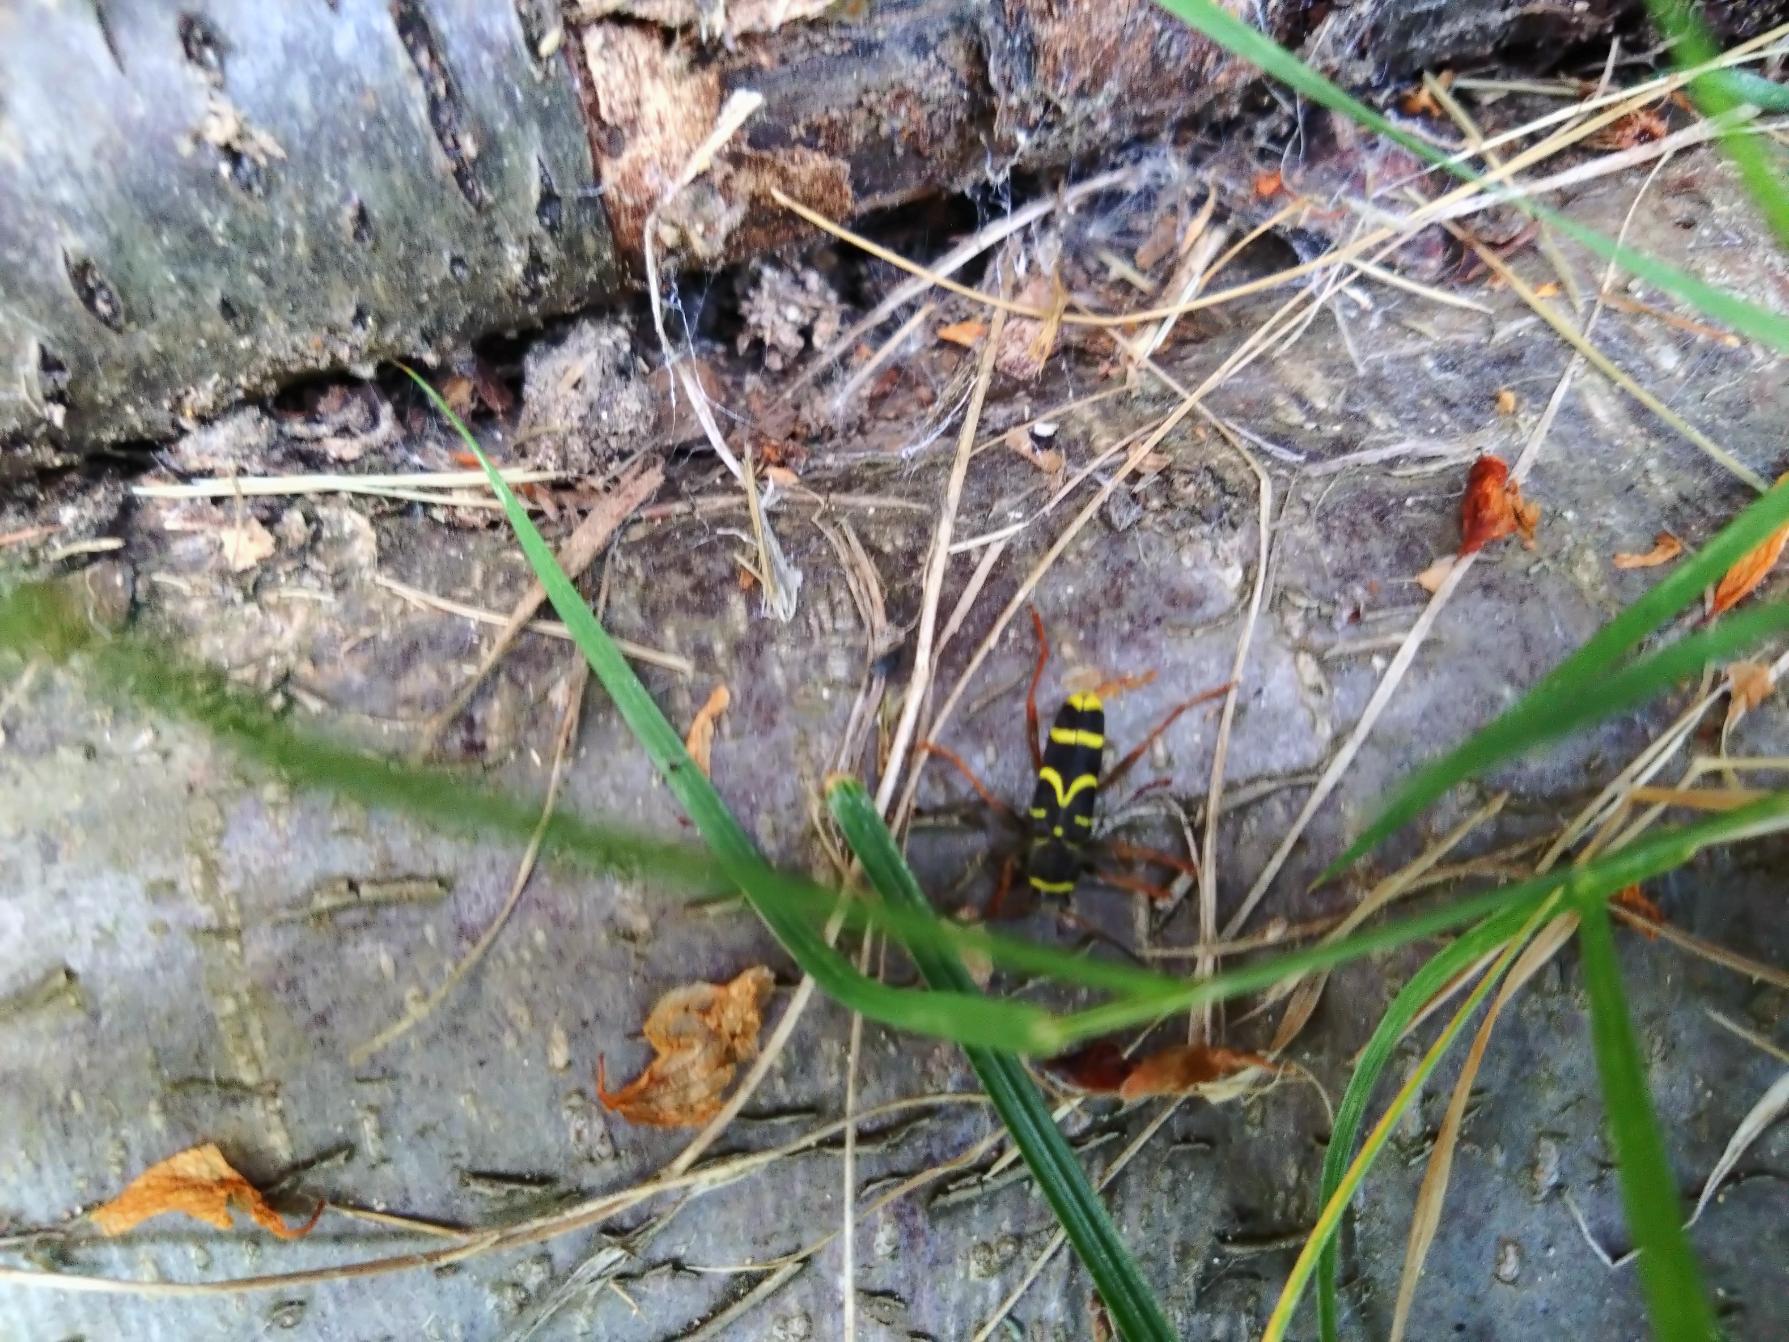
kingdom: Animalia
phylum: Arthropoda
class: Insecta
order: Coleoptera
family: Cerambycidae
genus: Clytus
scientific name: Clytus arietis
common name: Lille hvepsebuk
